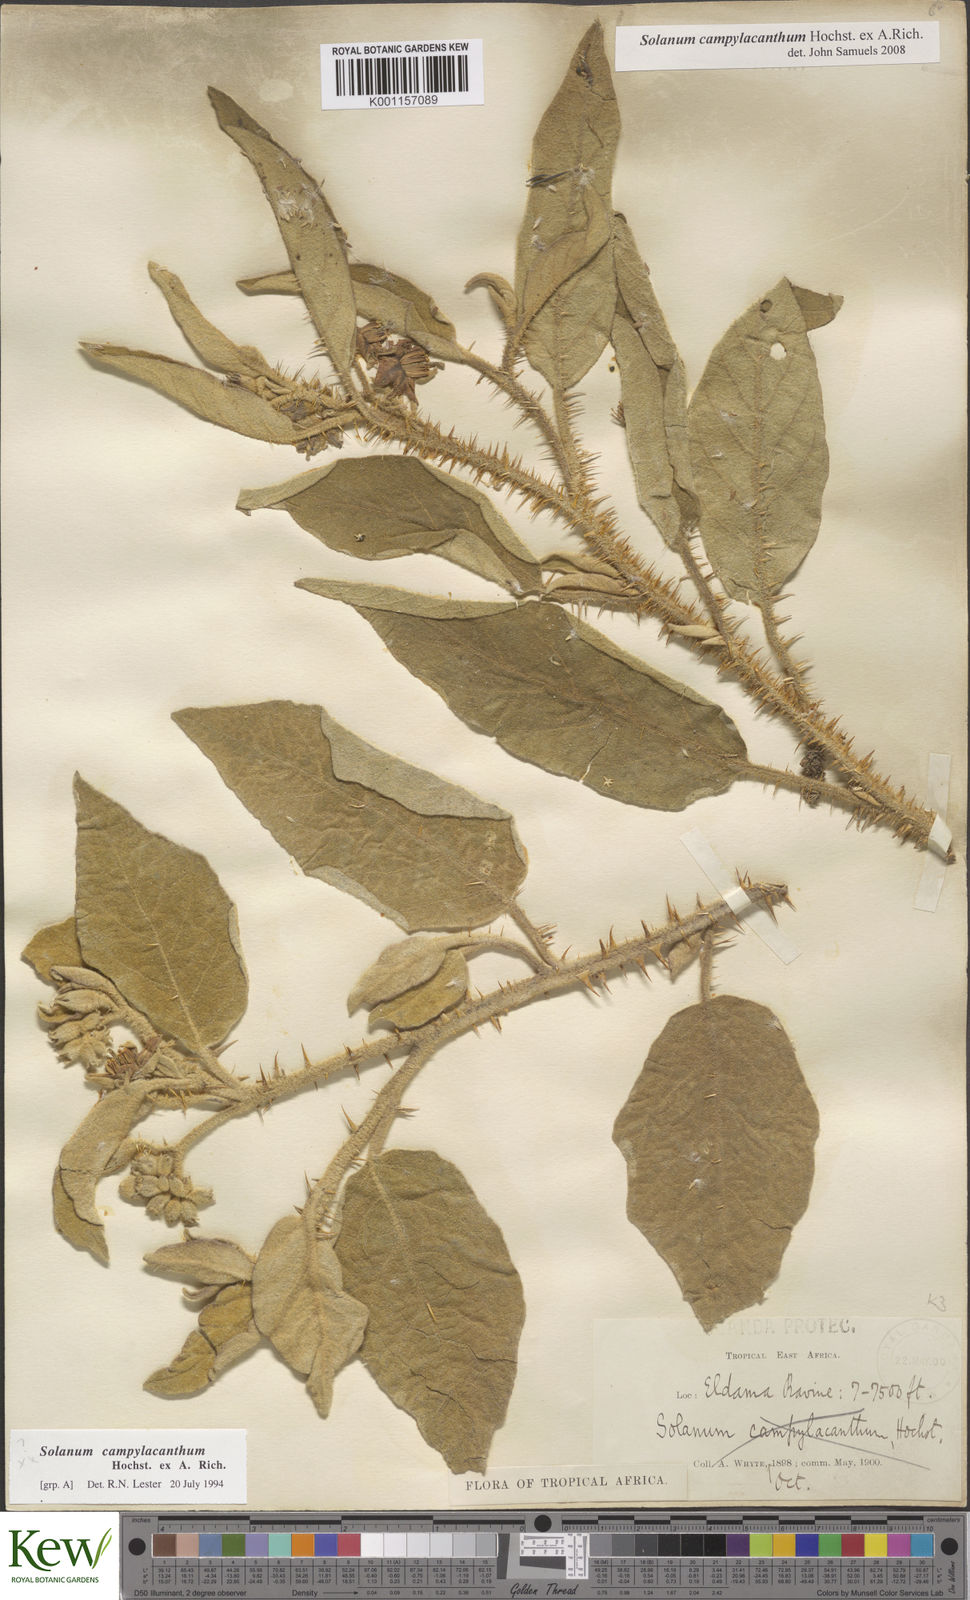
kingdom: Plantae
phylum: Tracheophyta
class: Magnoliopsida
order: Solanales
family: Solanaceae
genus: Solanum
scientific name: Solanum campylacanthum
